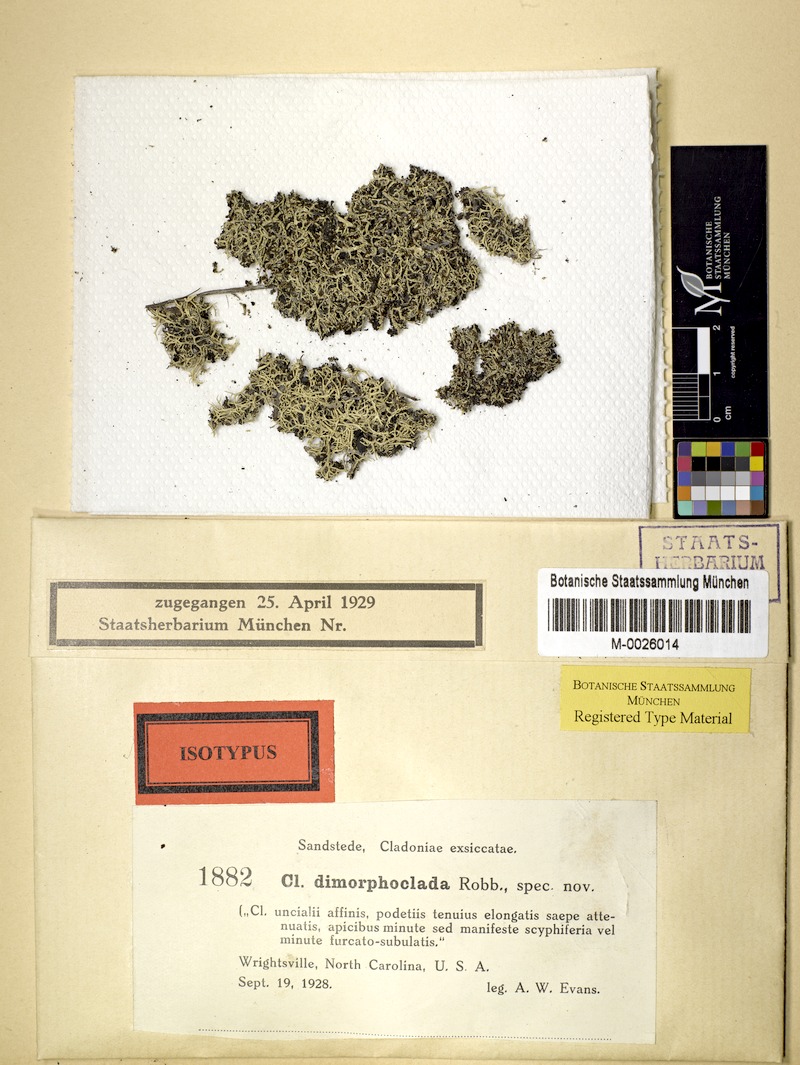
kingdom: Fungi
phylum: Ascomycota
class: Lecanoromycetes
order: Lecanorales
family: Cladoniaceae
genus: Cladonia
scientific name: Cladonia dimorphoclada
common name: Prostrate thorn cladonia
